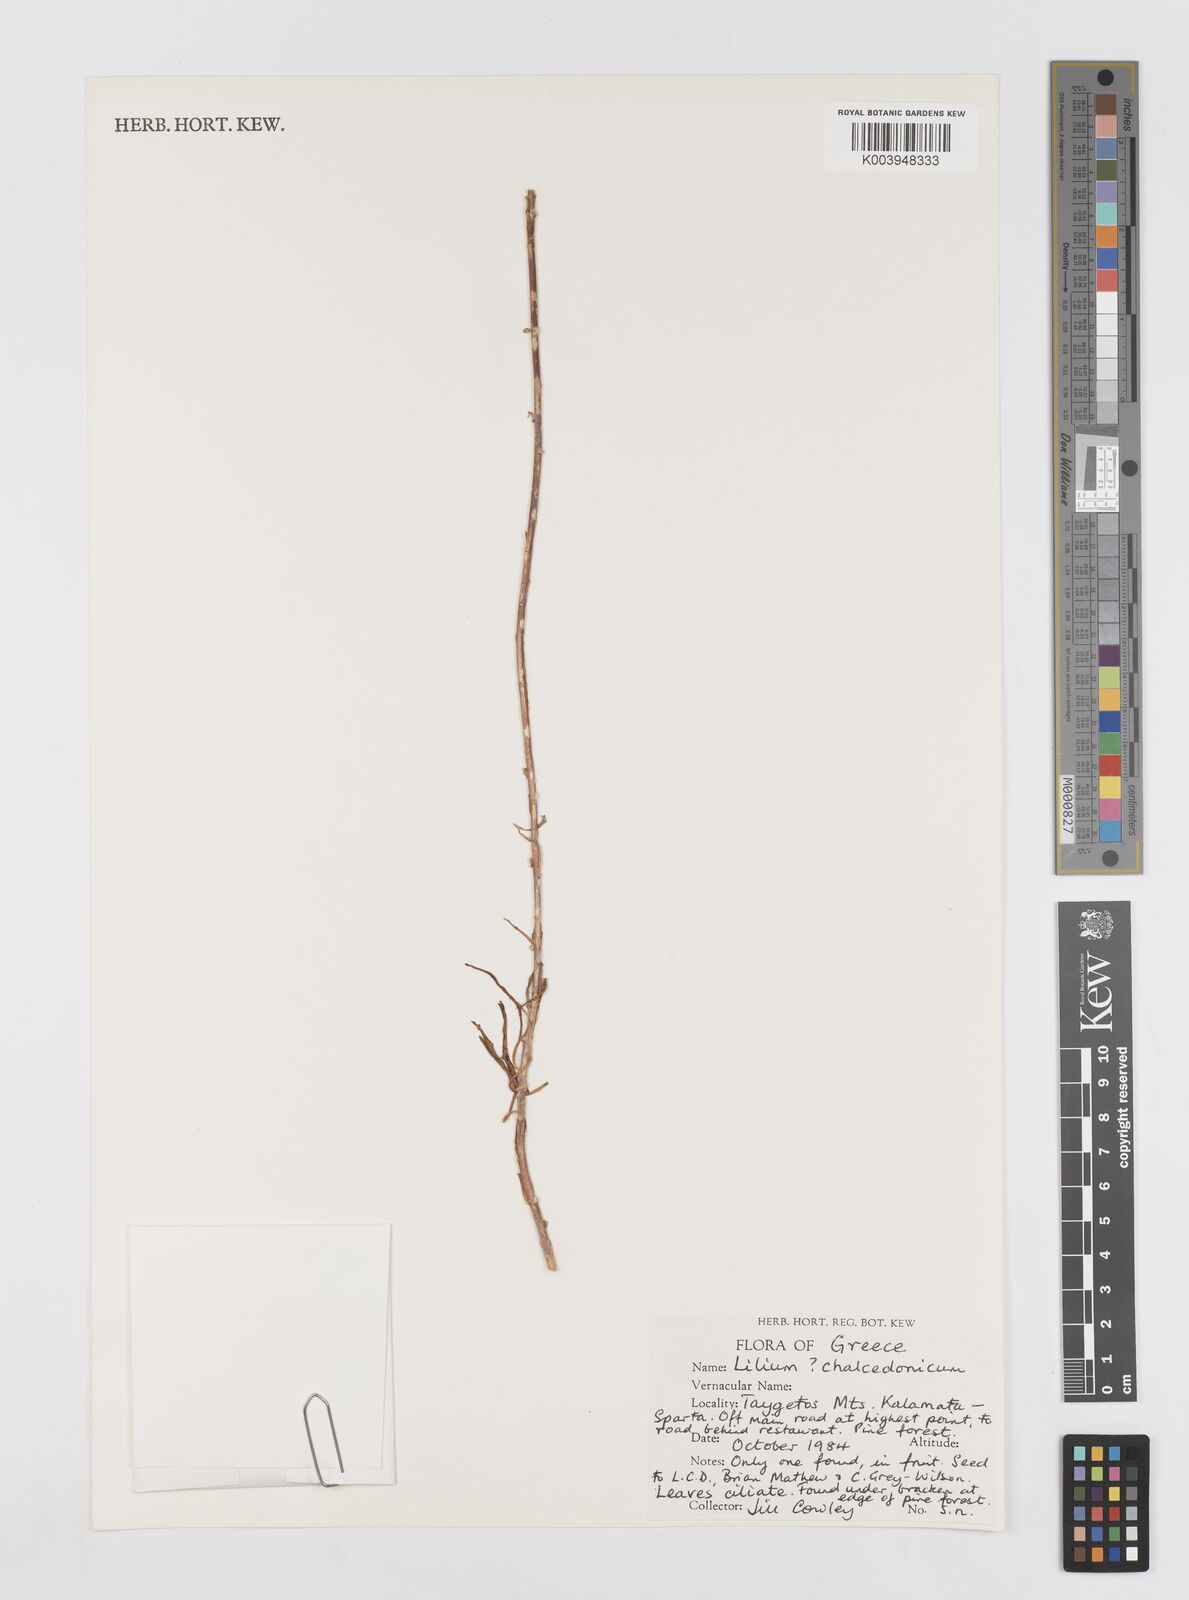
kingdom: Plantae
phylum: Tracheophyta
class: Liliopsida
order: Liliales
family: Liliaceae
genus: Lilium
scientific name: Lilium chalcedonicum
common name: Red martagon of constantinople
